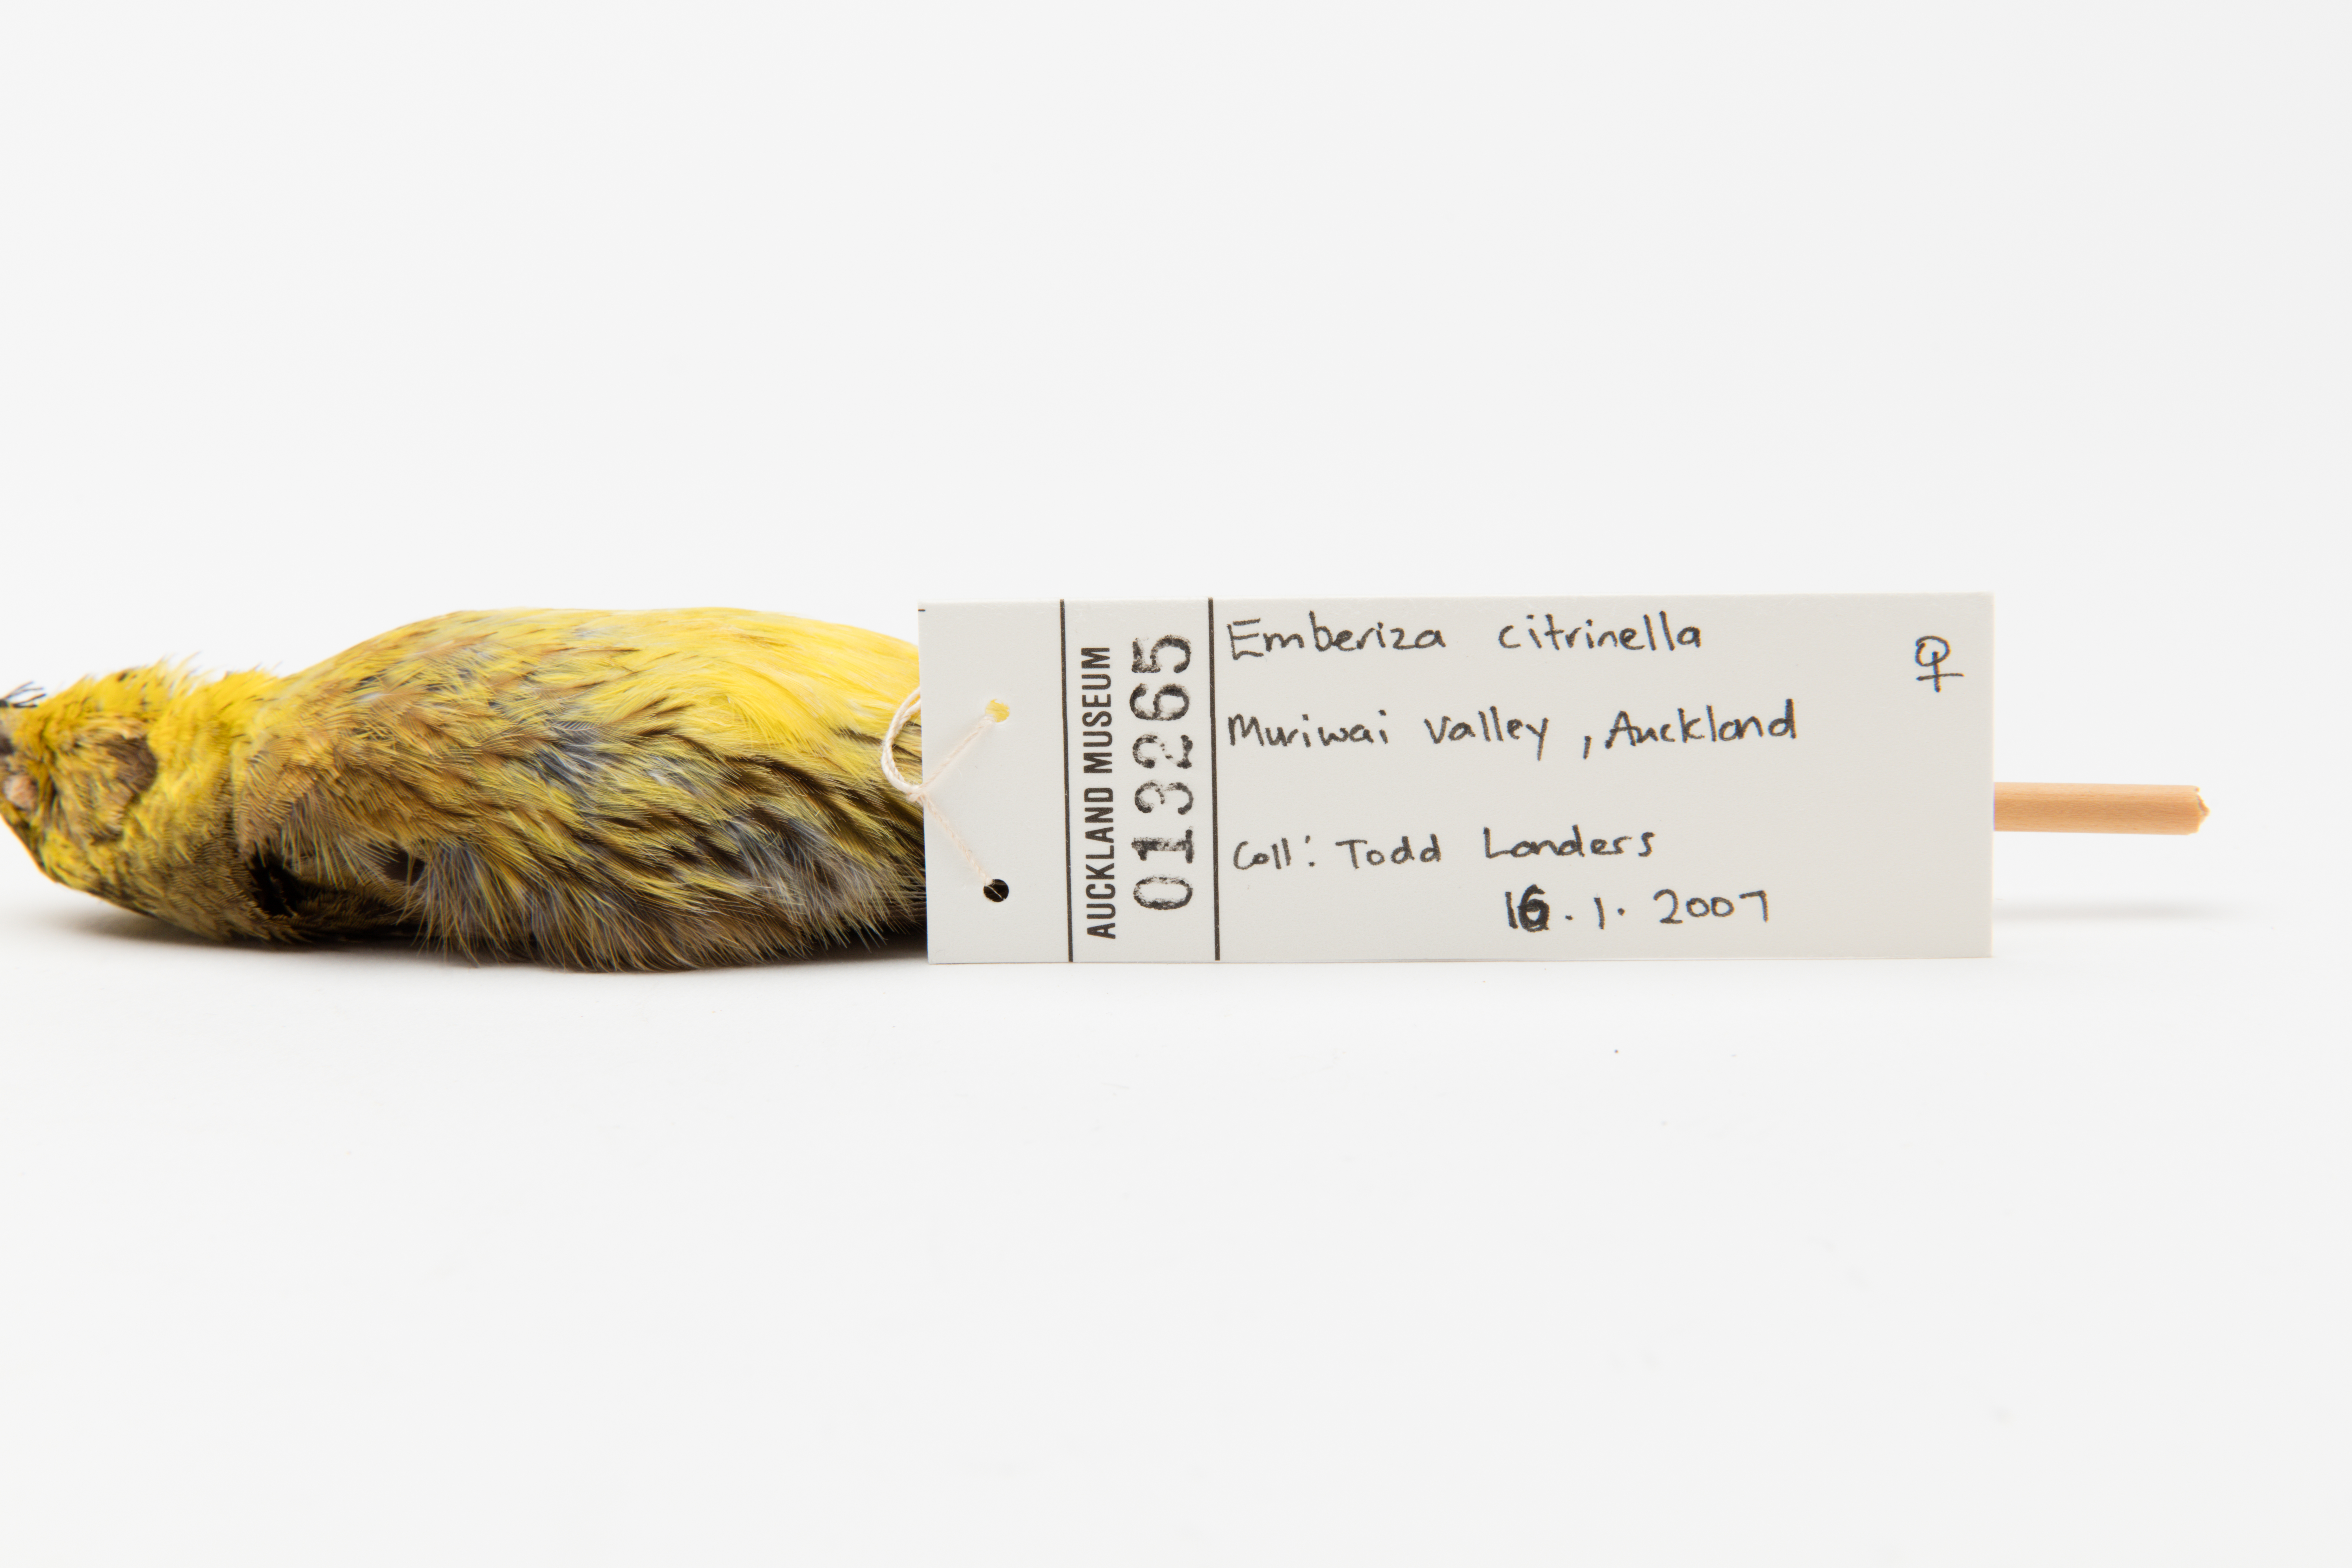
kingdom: Animalia
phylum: Chordata
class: Aves
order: Passeriformes
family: Emberizidae
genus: Emberiza
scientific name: Emberiza citrinella
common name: Yellowhammer
